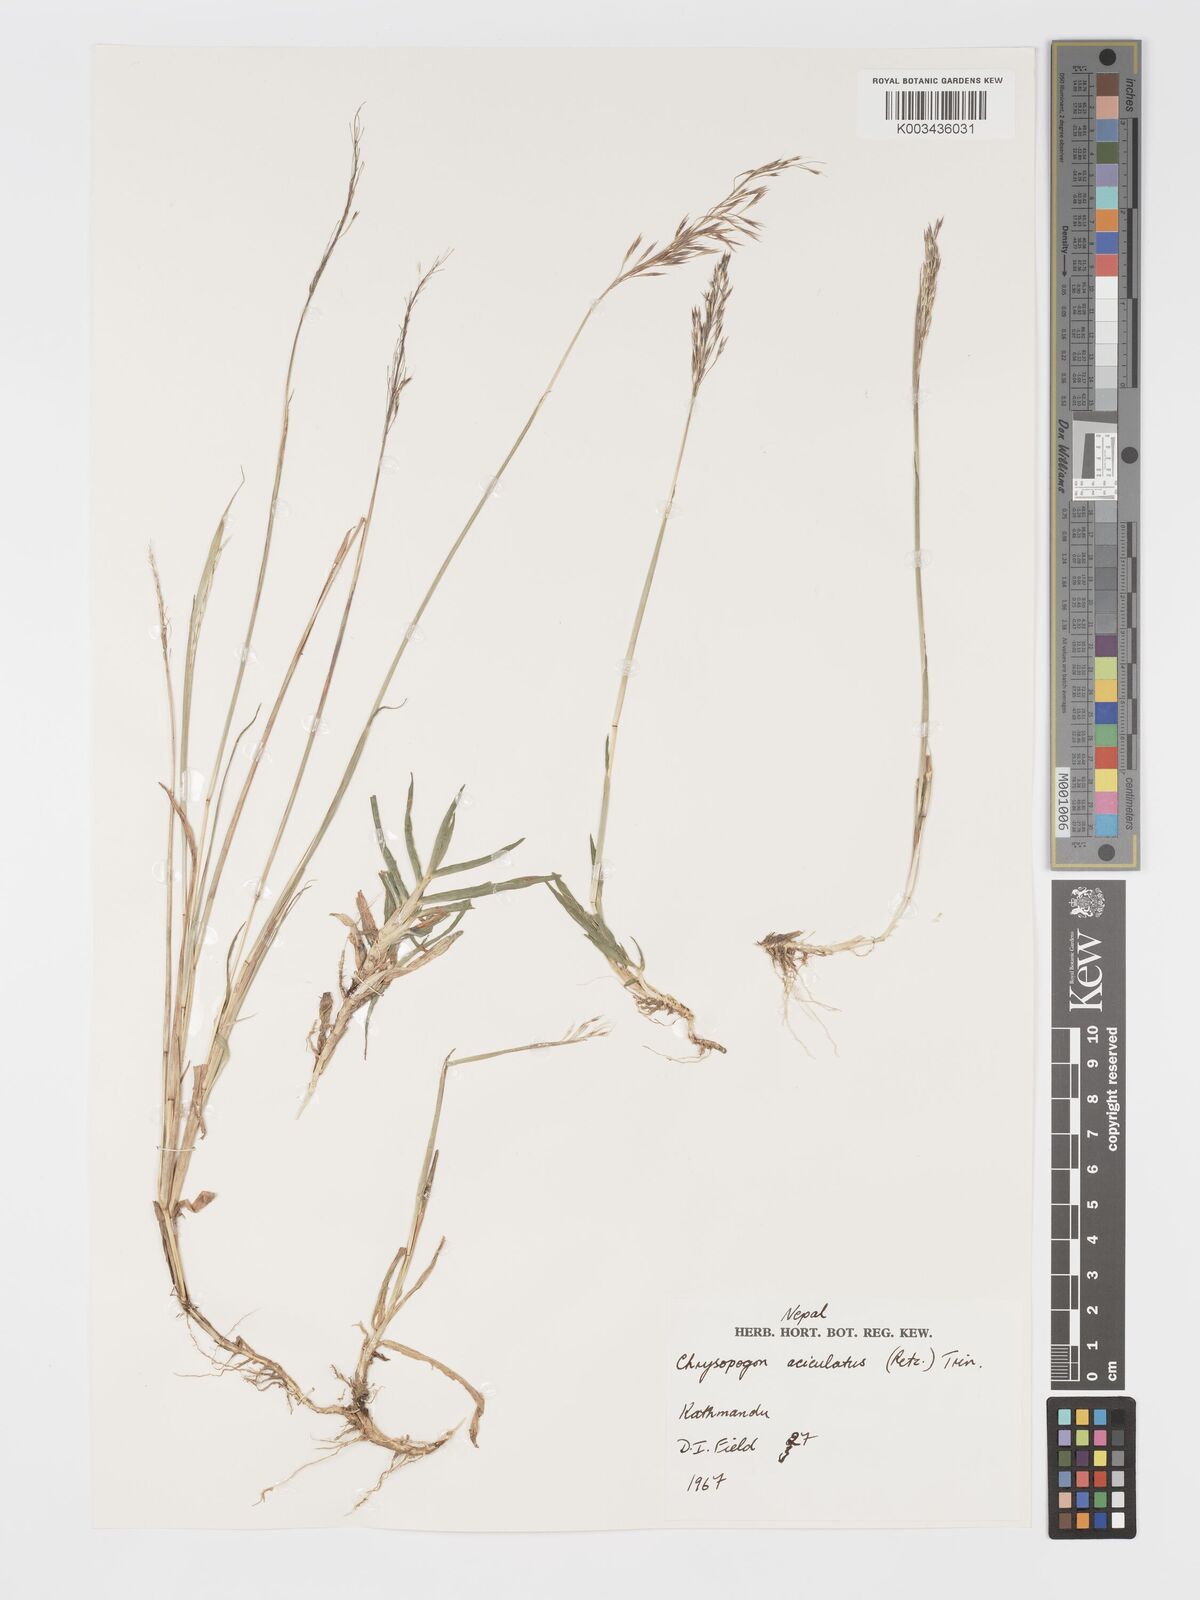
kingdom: Plantae
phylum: Tracheophyta
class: Liliopsida
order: Poales
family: Poaceae
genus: Chrysopogon
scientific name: Chrysopogon aciculatus
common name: Pilipiliula
